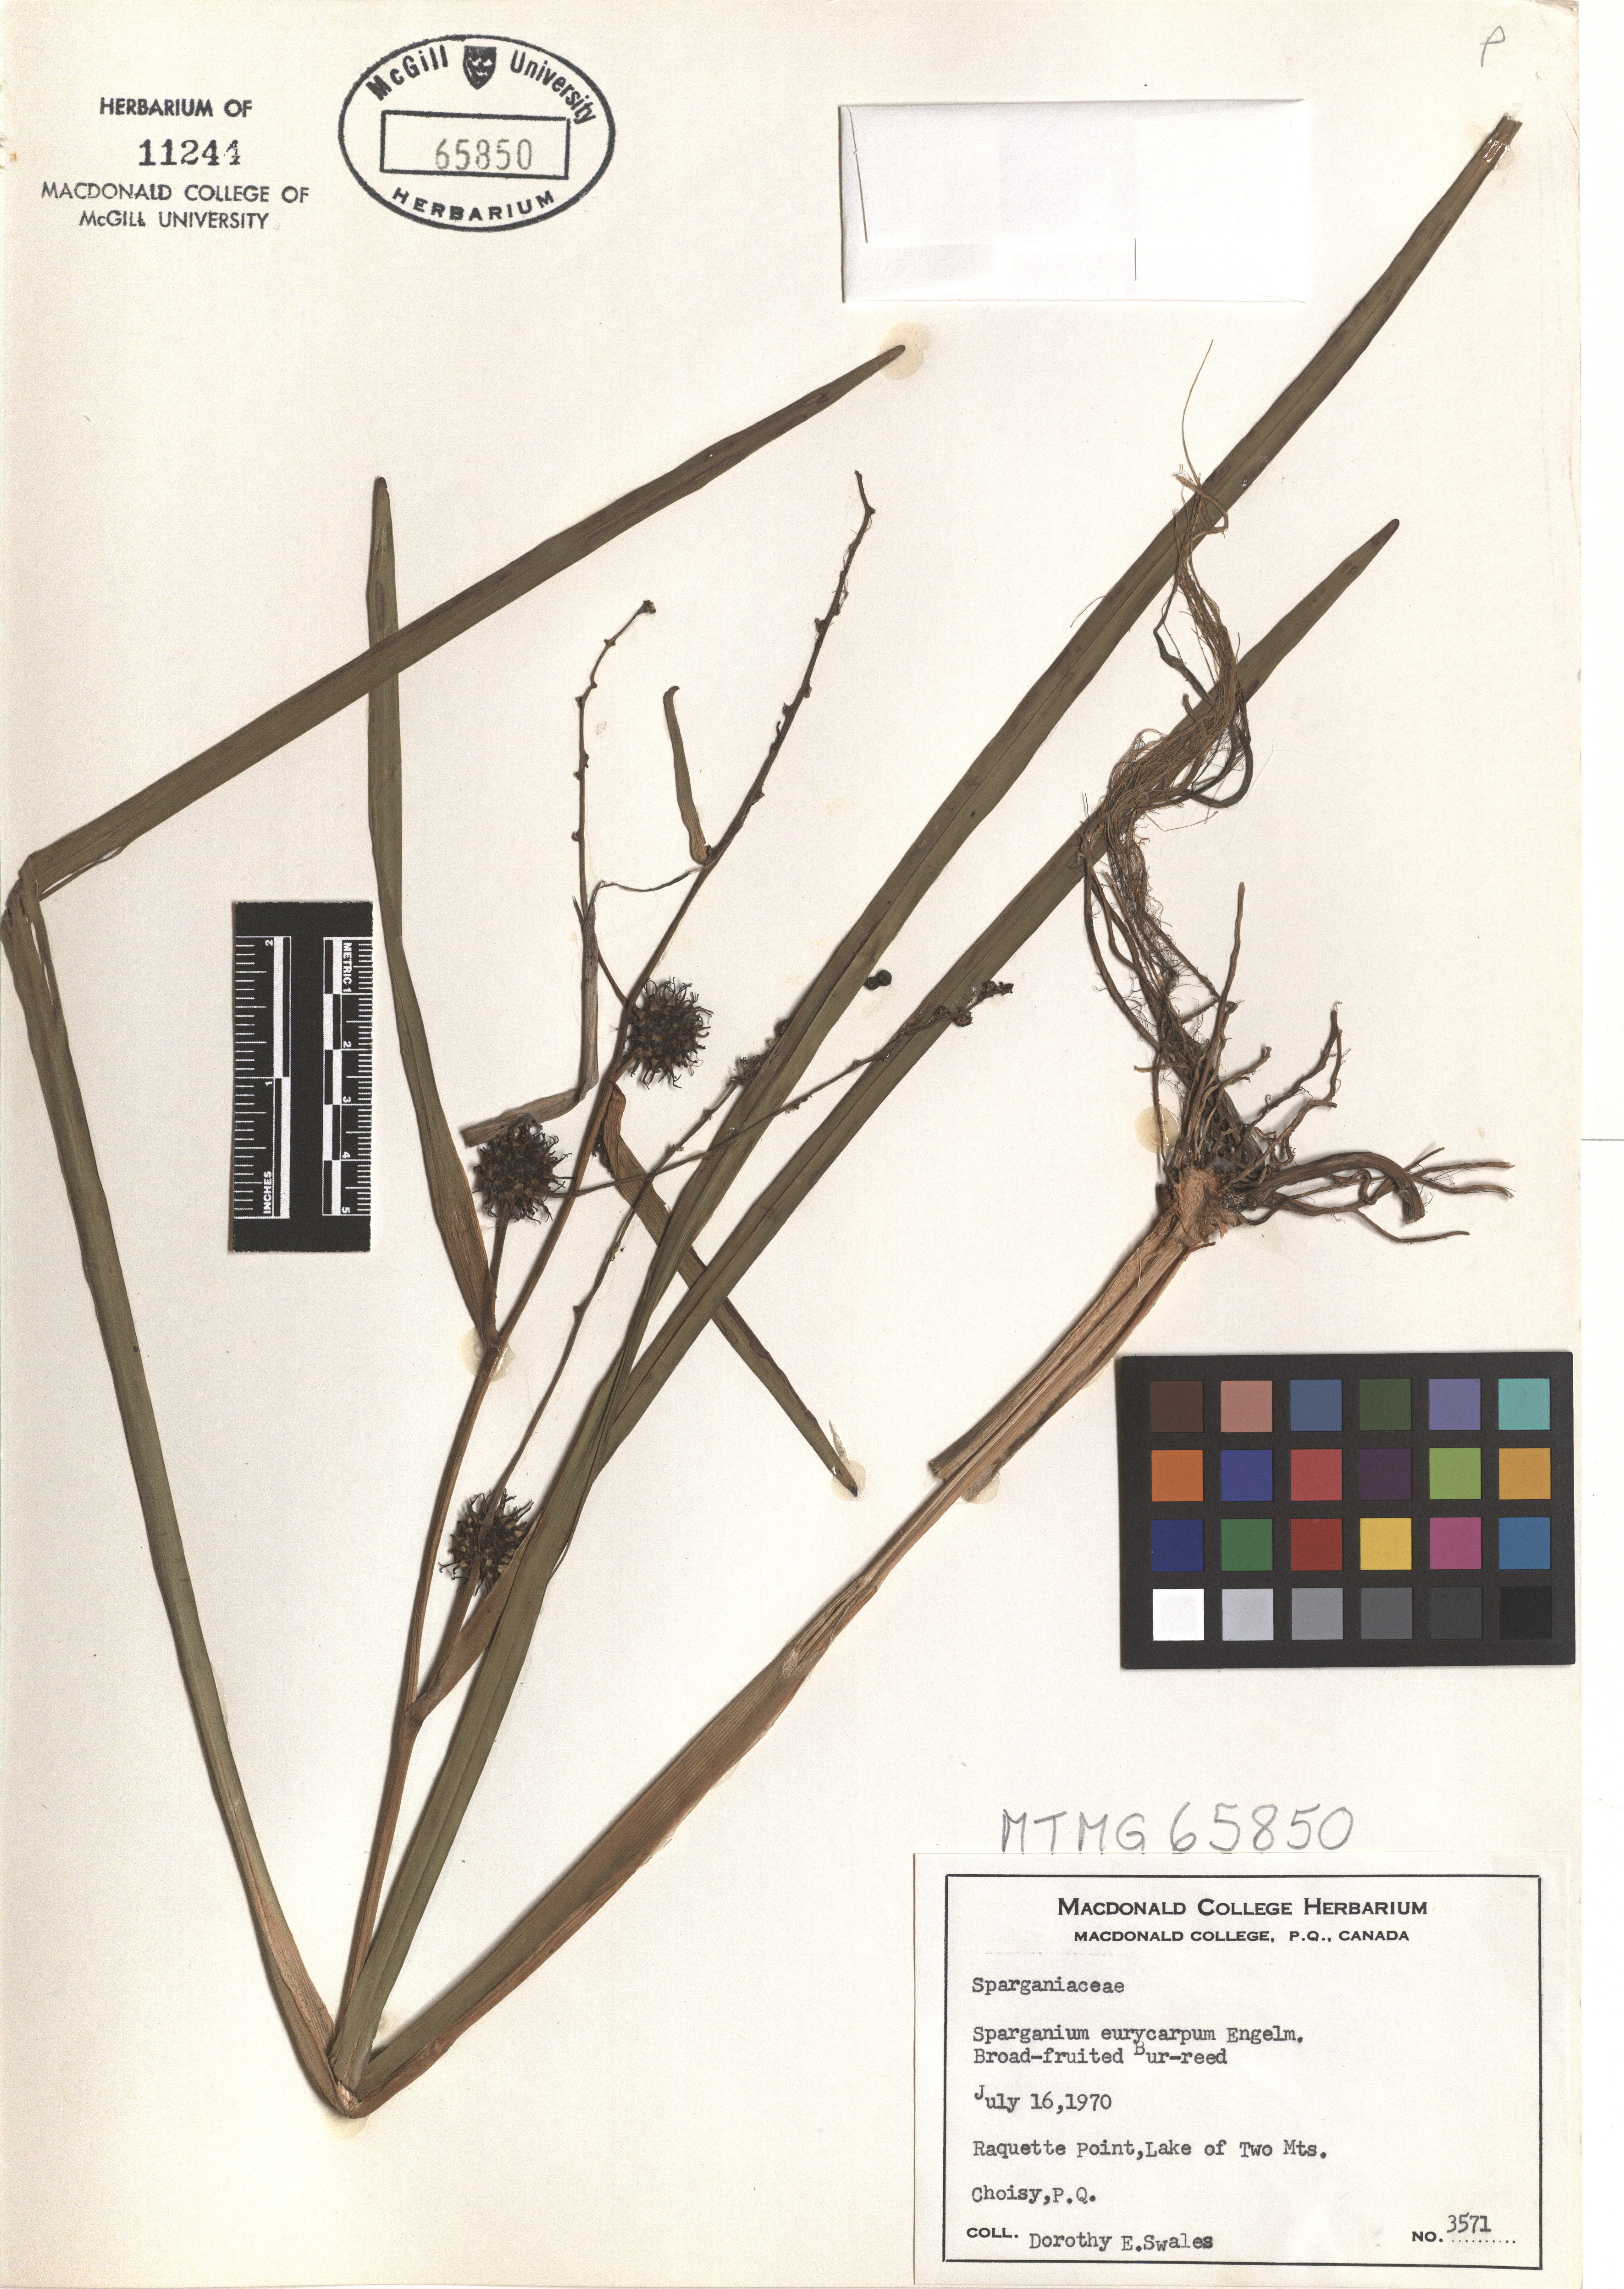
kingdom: Plantae
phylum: Tracheophyta
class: Liliopsida
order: Poales
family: Typhaceae
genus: Sparganium
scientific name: Sparganium eurycarpum
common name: Broad-fruited burreed
